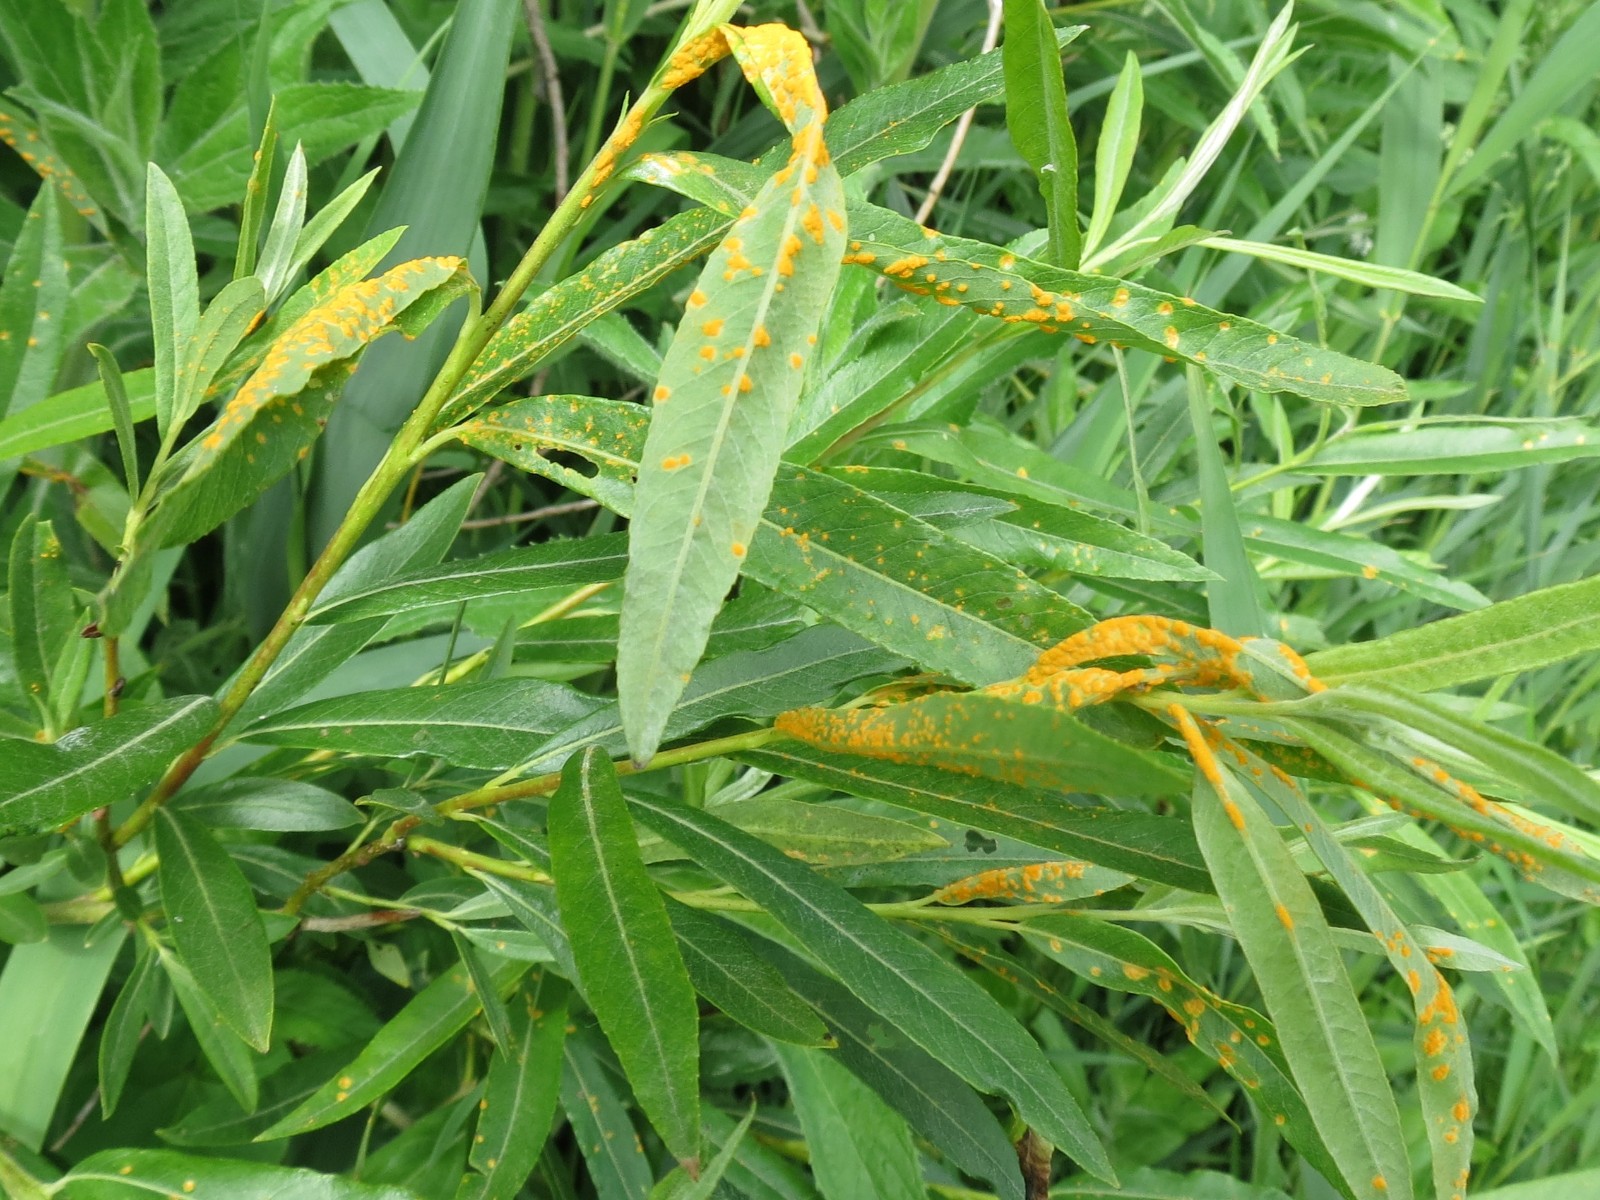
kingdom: Fungi
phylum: Basidiomycota
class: Pucciniomycetes
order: Pucciniales
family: Melampsoraceae
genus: Melampsora
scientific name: Melampsora
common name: skorperust
